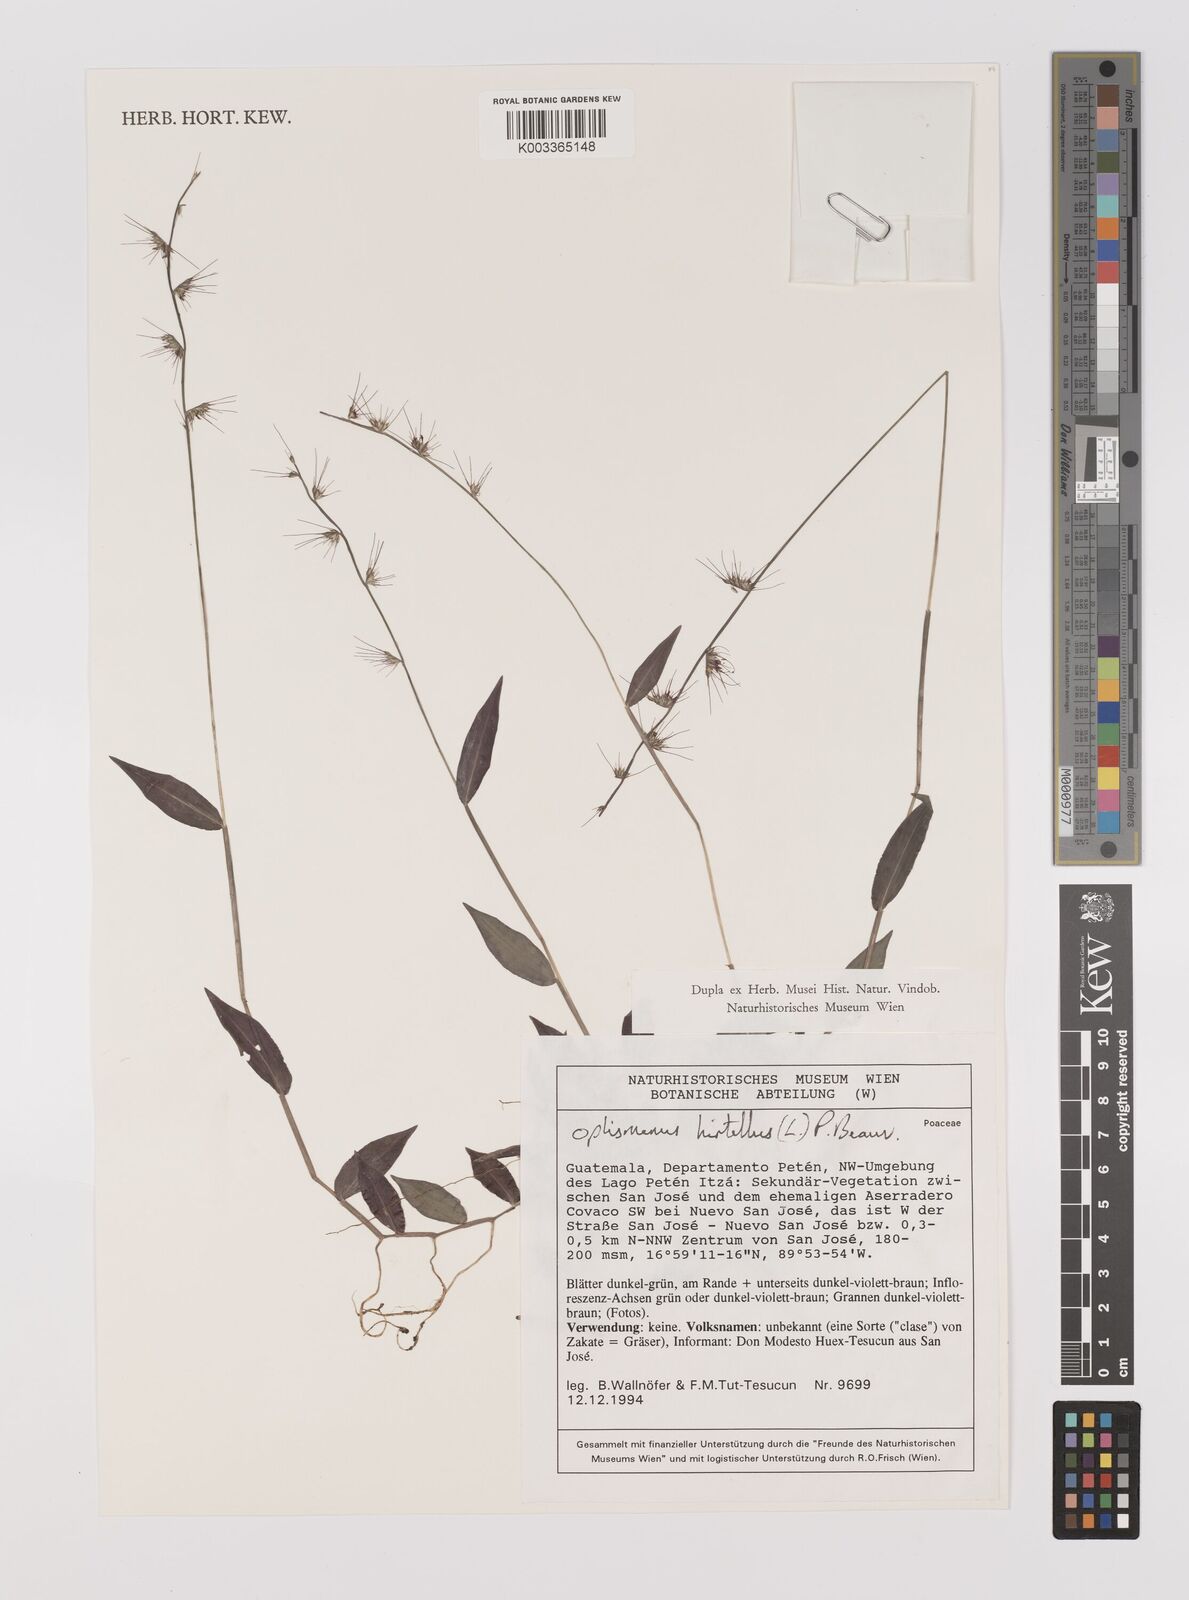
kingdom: Plantae
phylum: Tracheophyta
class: Liliopsida
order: Poales
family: Poaceae
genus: Oplismenus
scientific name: Oplismenus hirtellus
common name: Basketgrass
